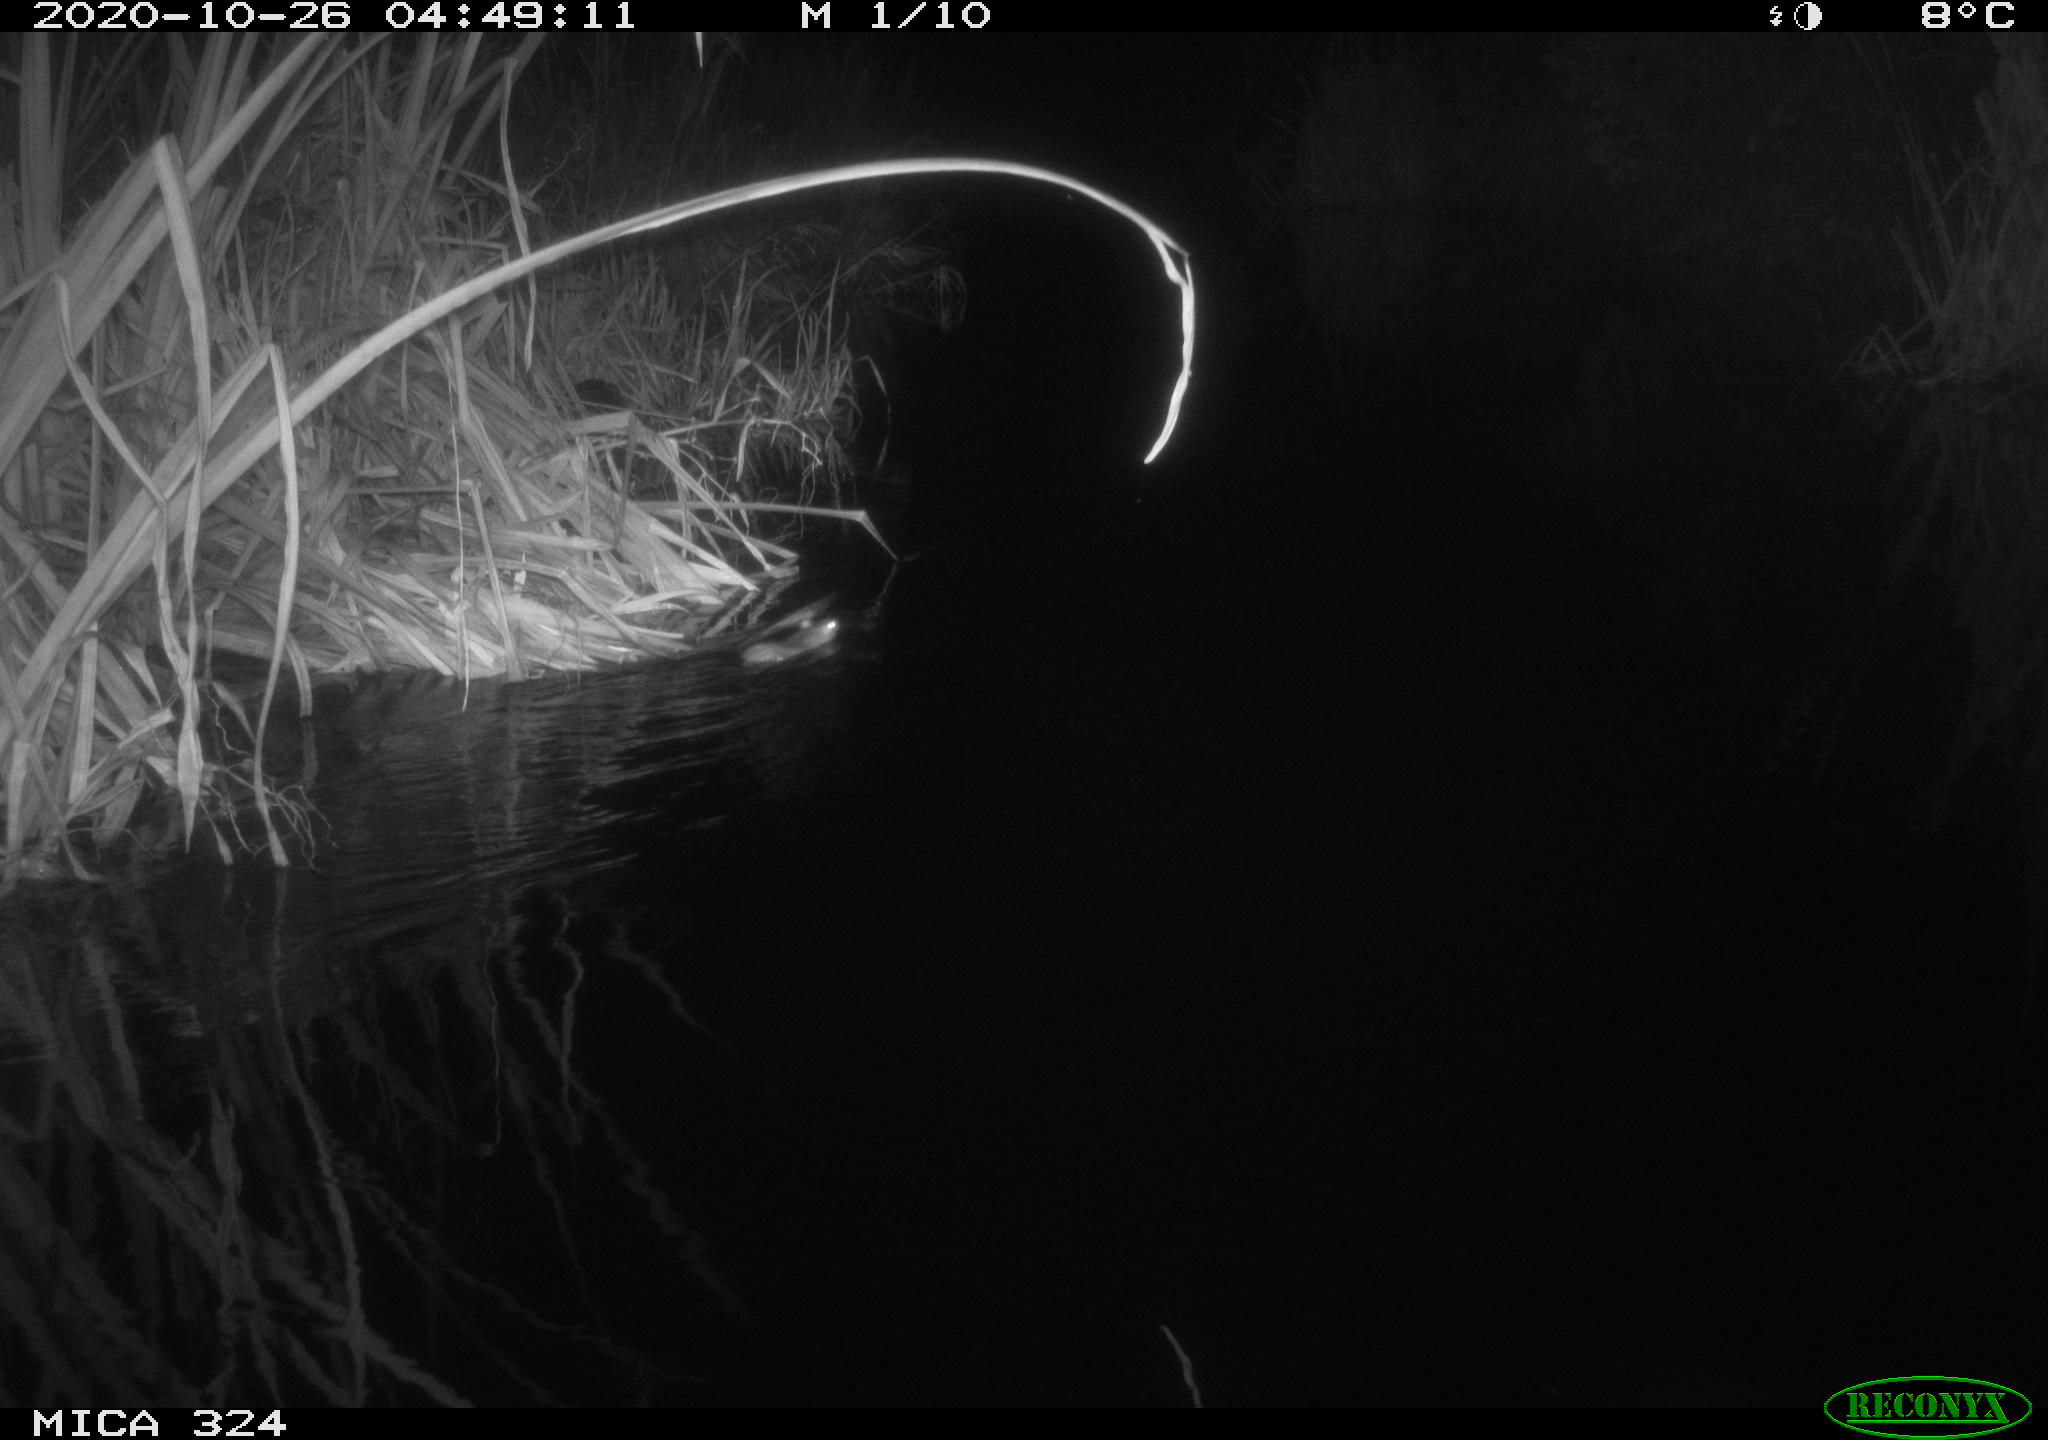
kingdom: Animalia
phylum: Chordata
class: Mammalia
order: Rodentia
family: Muridae
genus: Rattus
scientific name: Rattus norvegicus
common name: Brown rat
